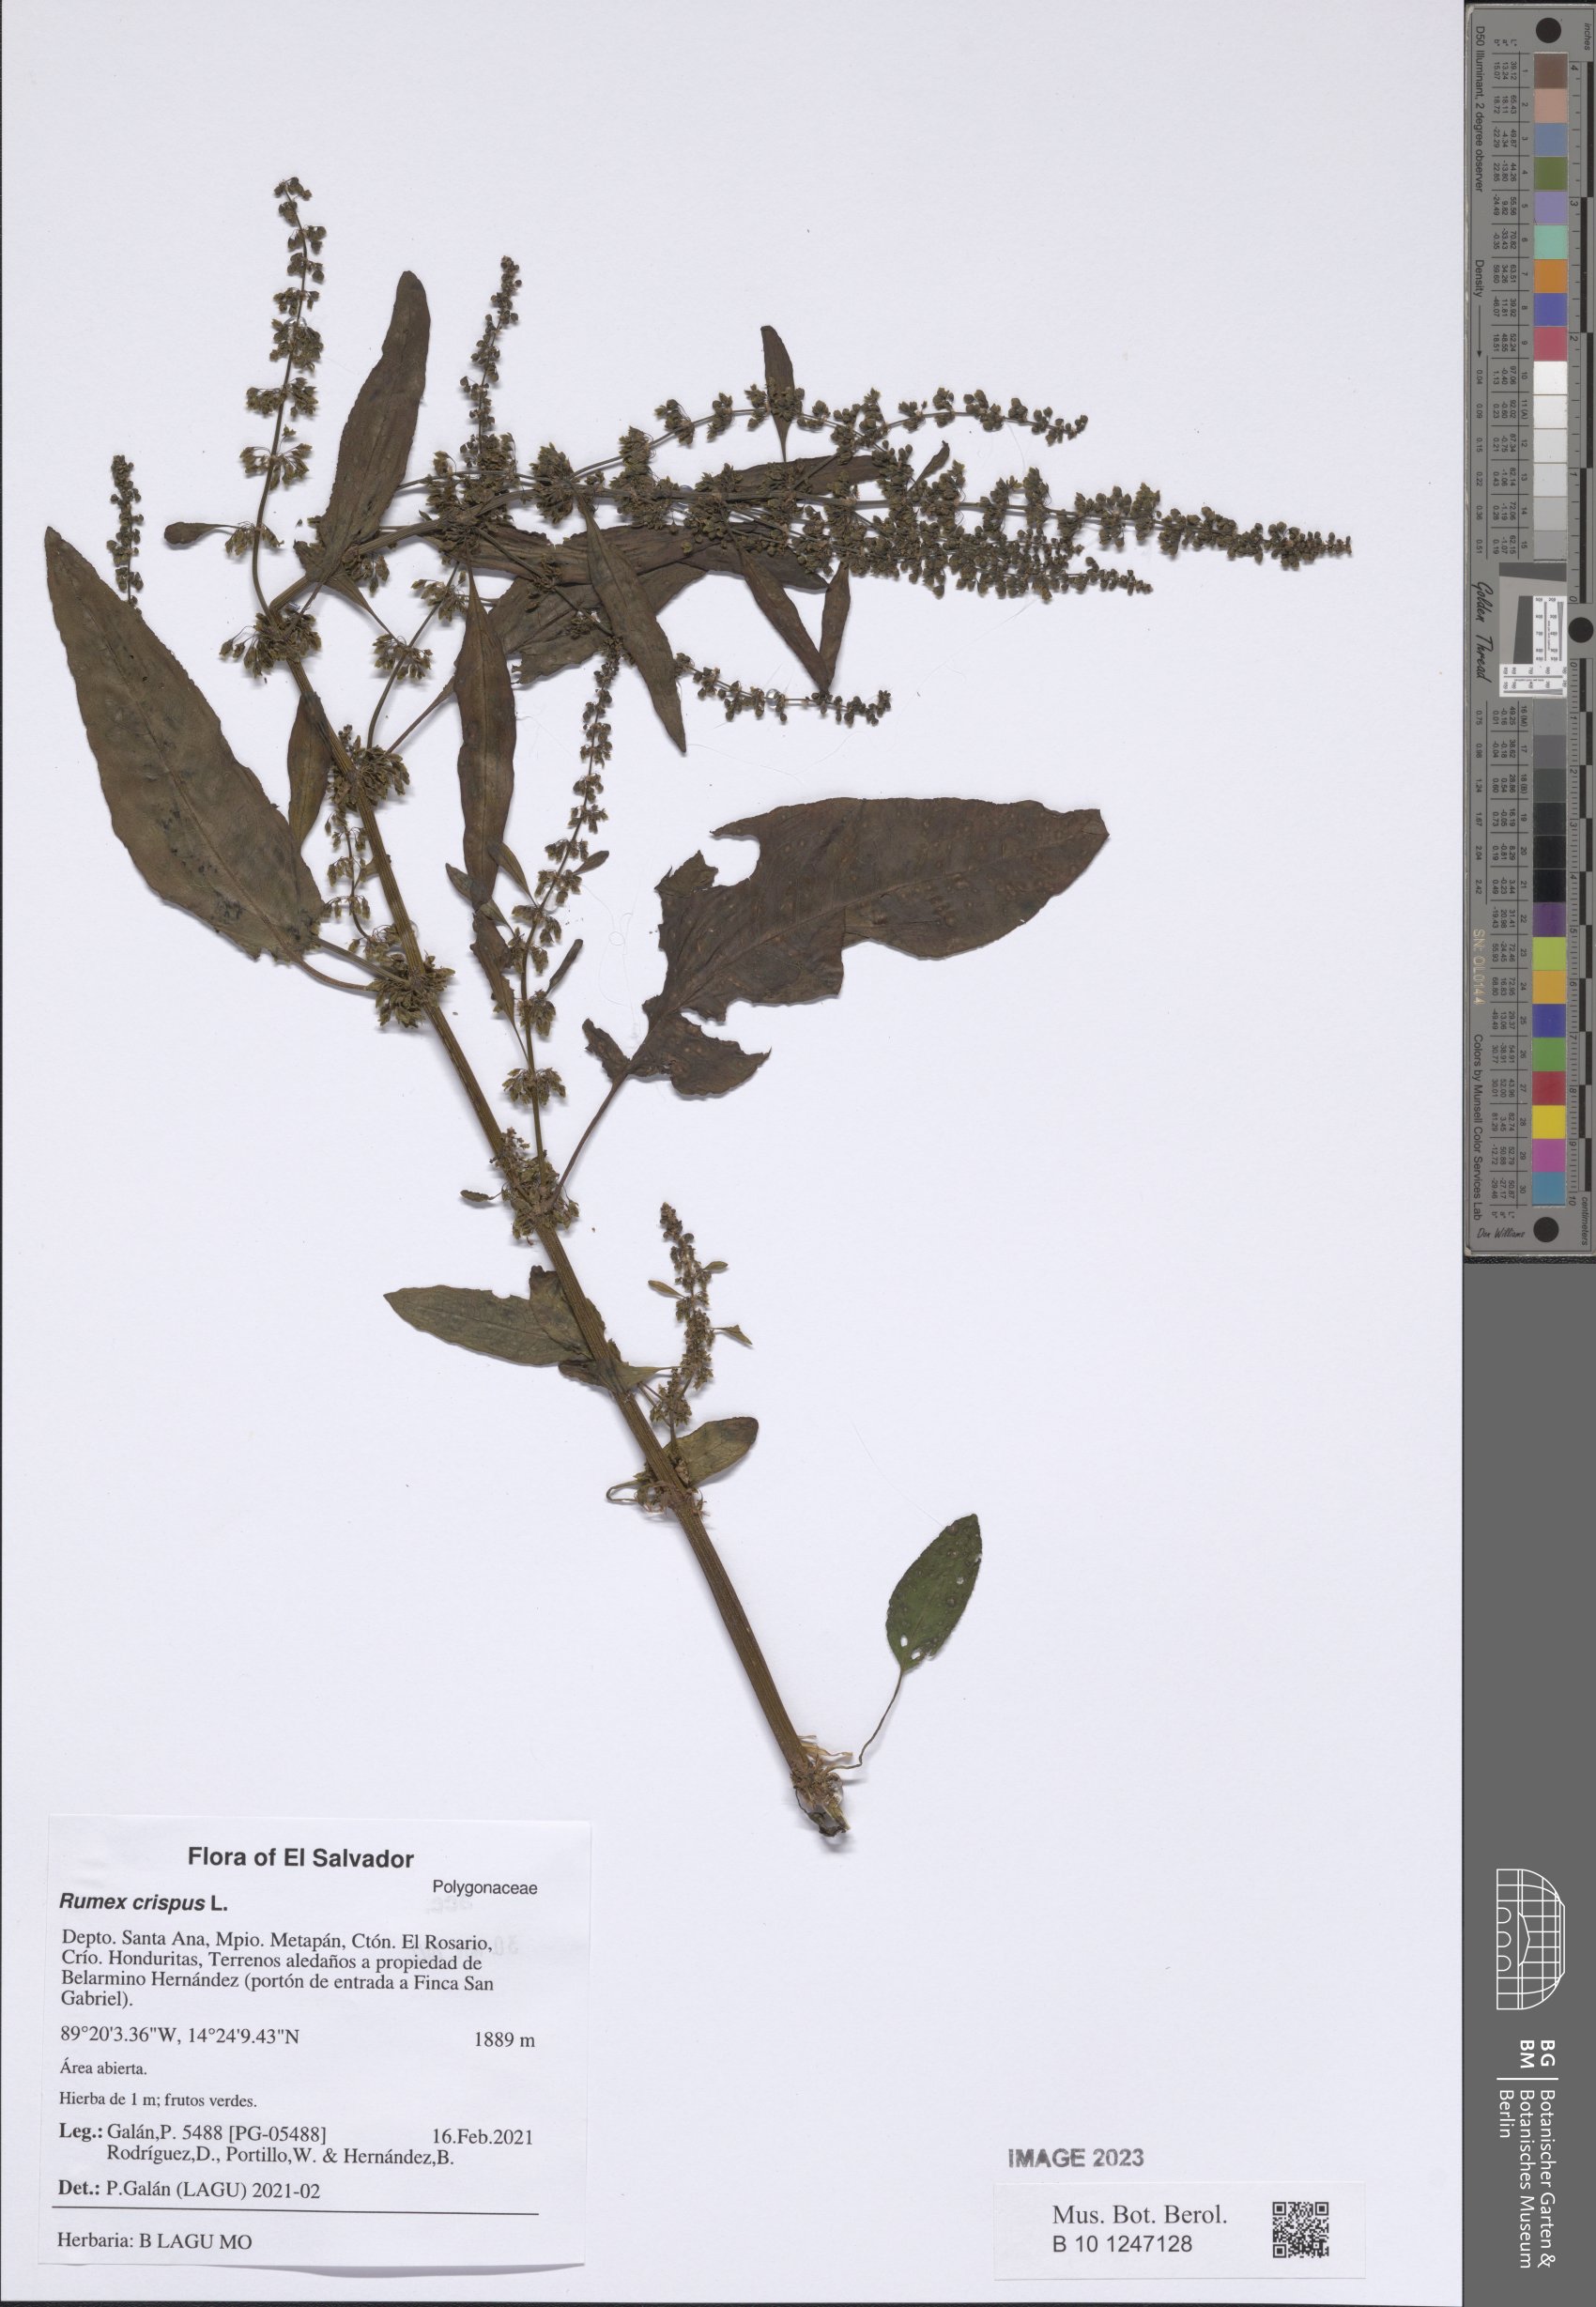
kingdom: Plantae
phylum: Tracheophyta
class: Magnoliopsida
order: Caryophyllales
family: Polygonaceae
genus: Rumex
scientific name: Rumex crispus
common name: Curled dock
